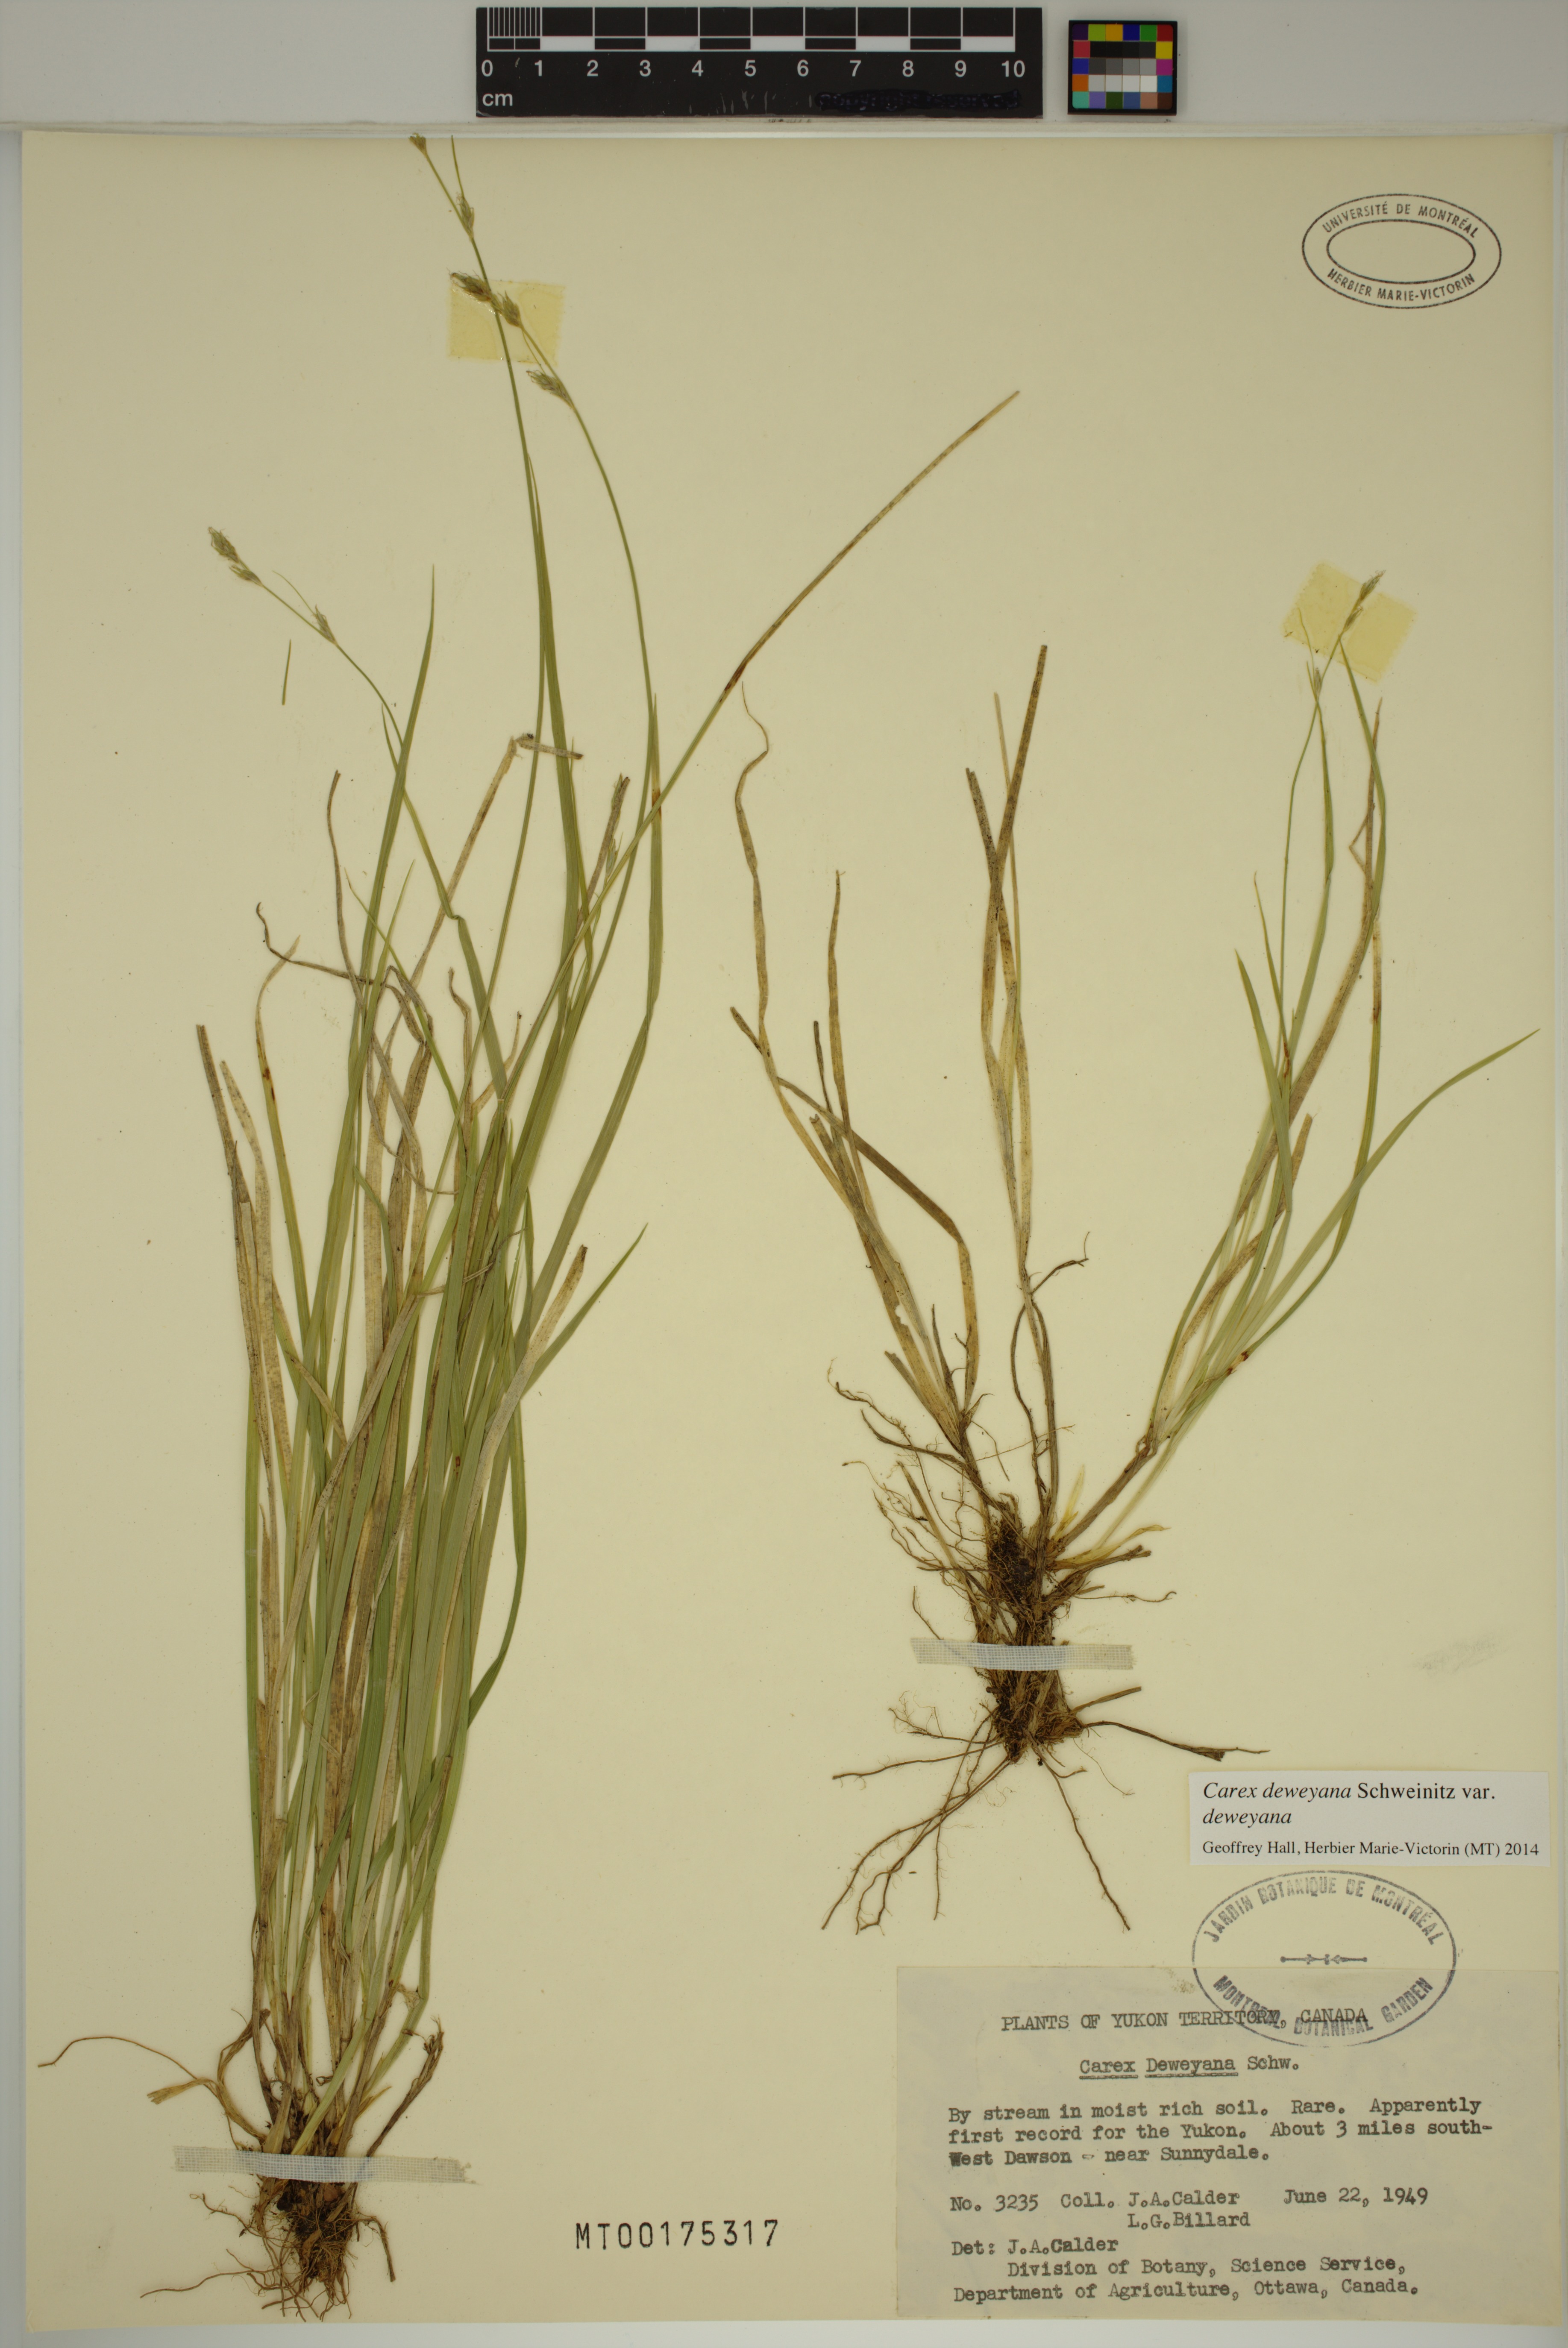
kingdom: Plantae
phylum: Tracheophyta
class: Liliopsida
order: Poales
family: Cyperaceae
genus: Carex
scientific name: Carex deweyana
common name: Dewey's sedge
